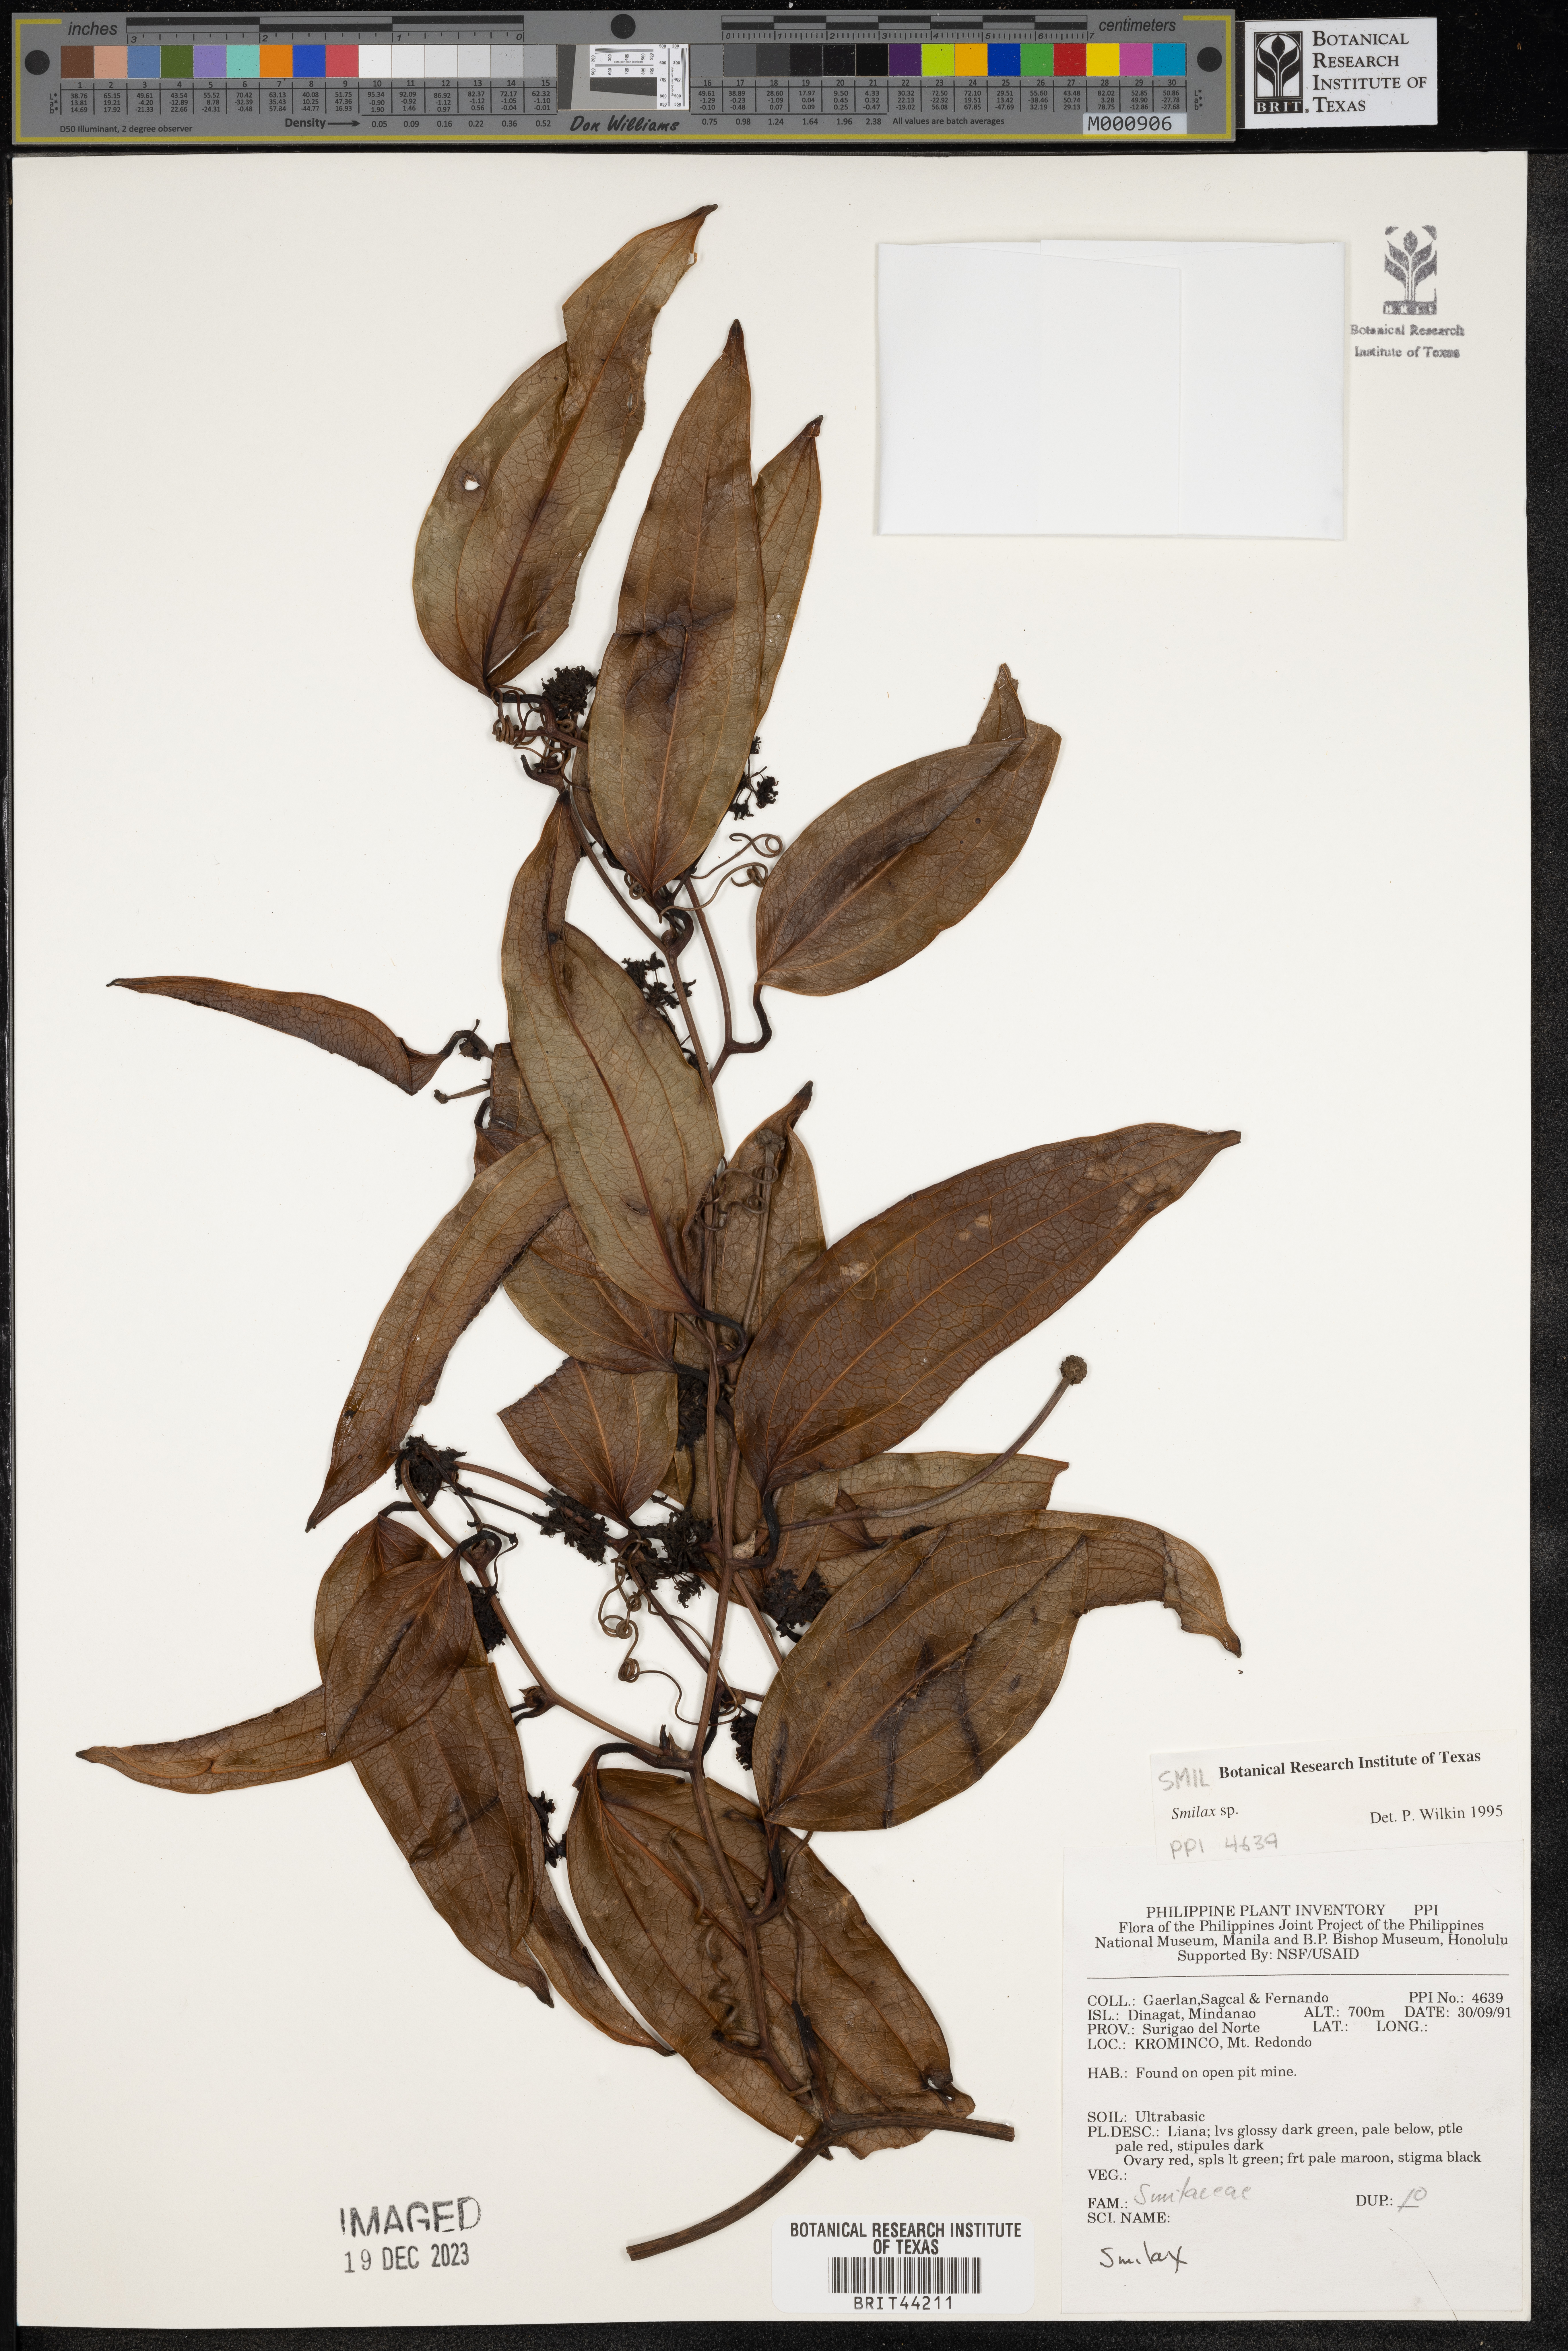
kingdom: Plantae
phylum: Tracheophyta
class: Liliopsida
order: Liliales
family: Smilacaceae
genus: Smilax
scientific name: Smilax
